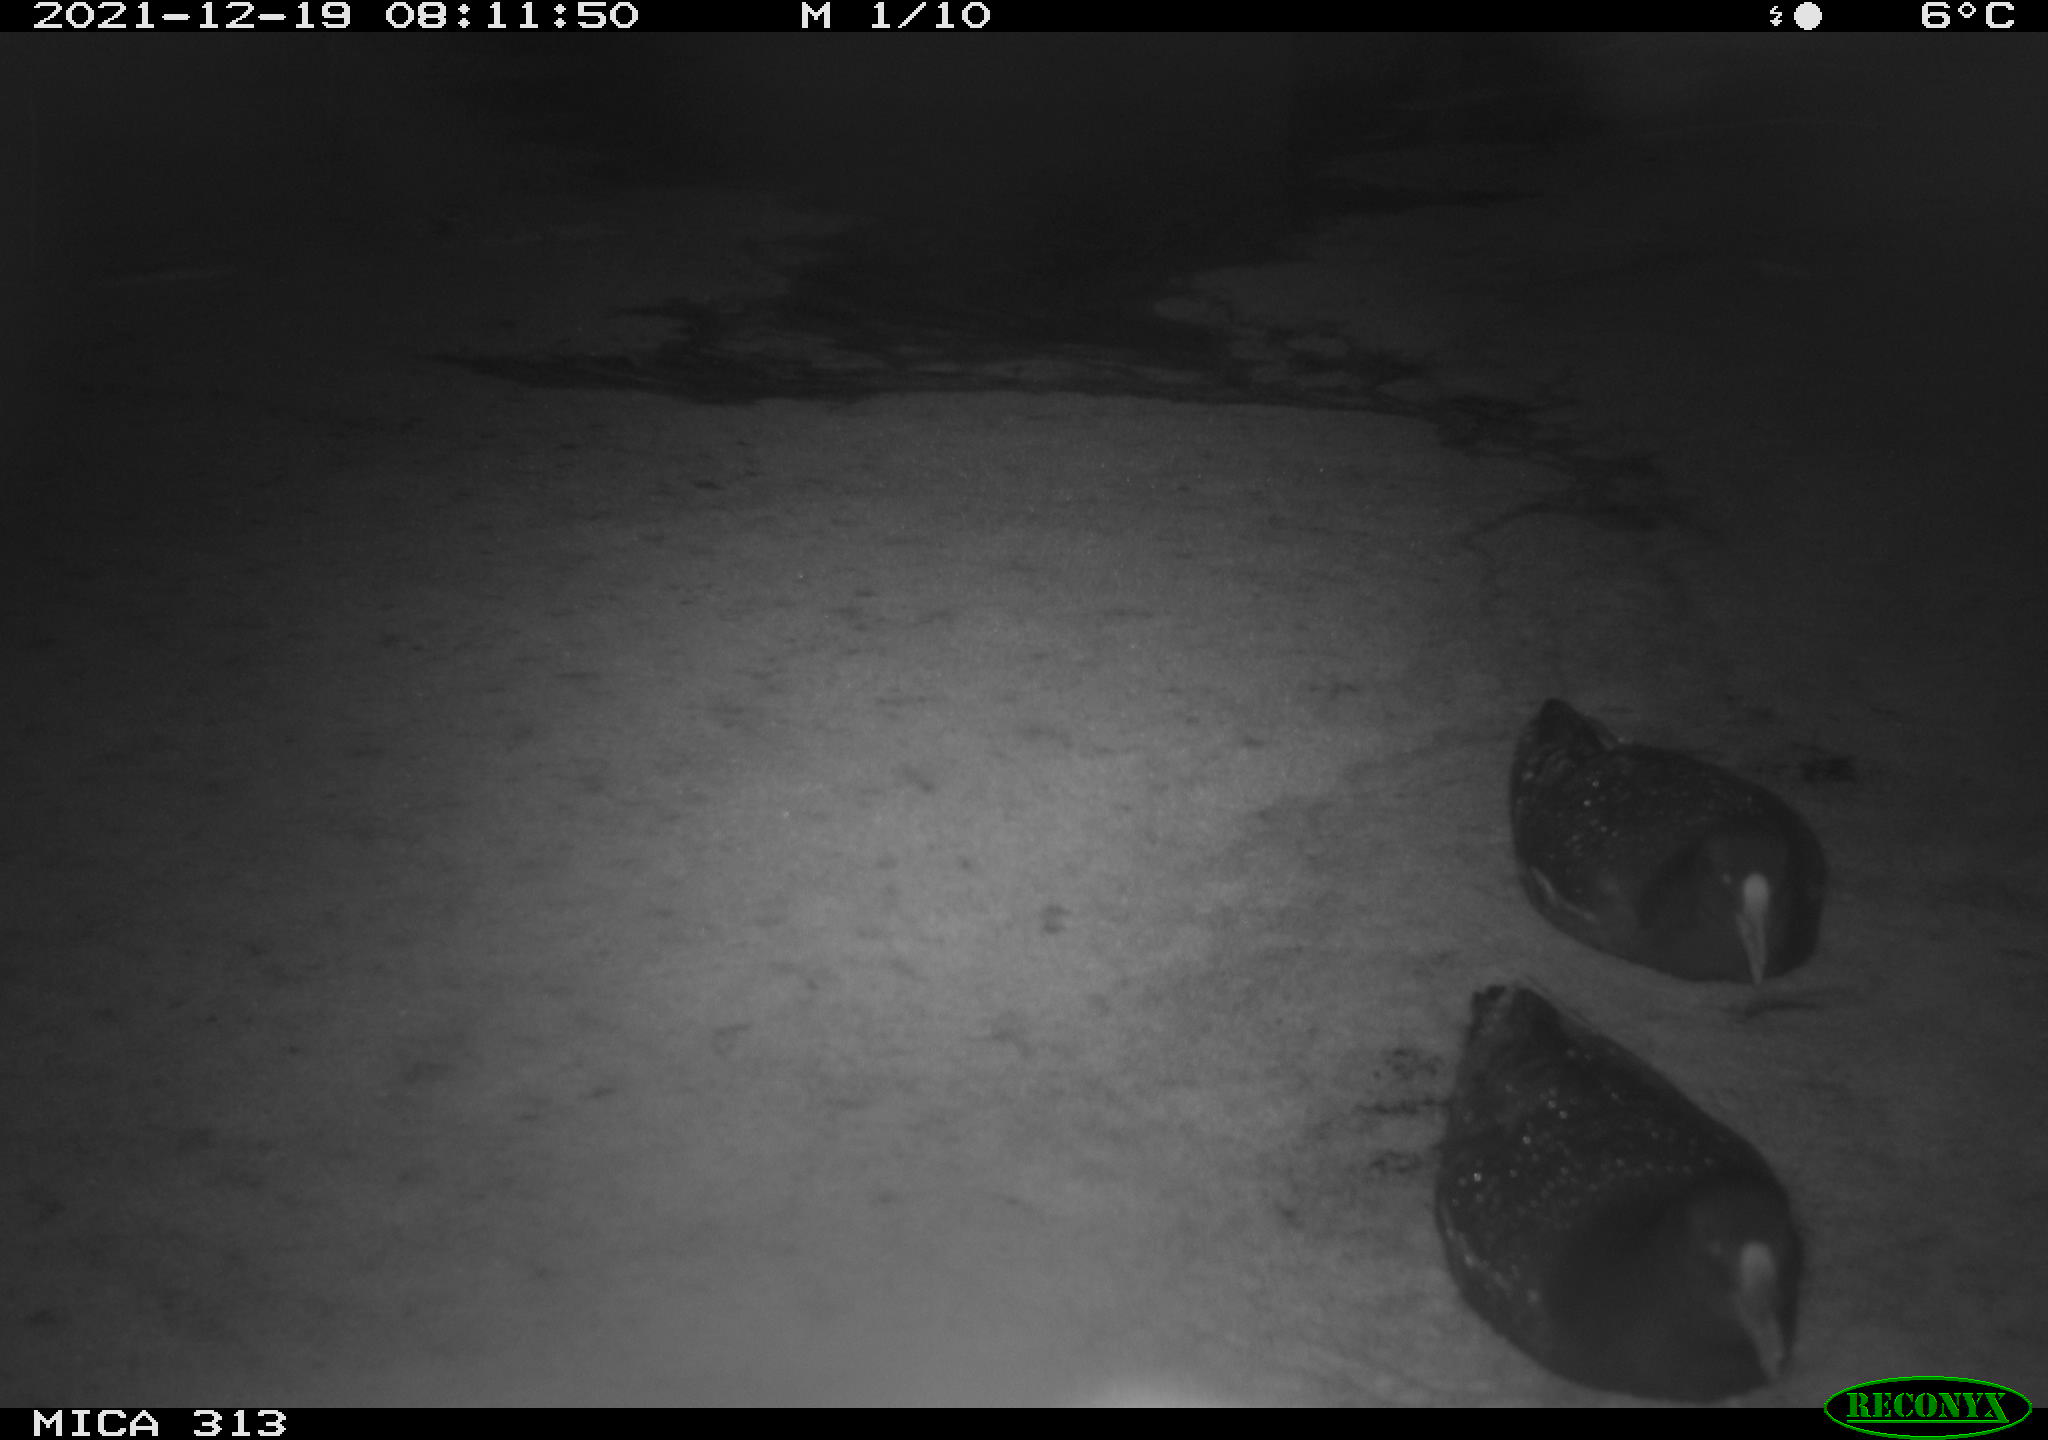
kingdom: Animalia
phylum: Chordata
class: Aves
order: Gruiformes
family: Rallidae
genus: Fulica
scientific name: Fulica atra
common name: Eurasian coot
